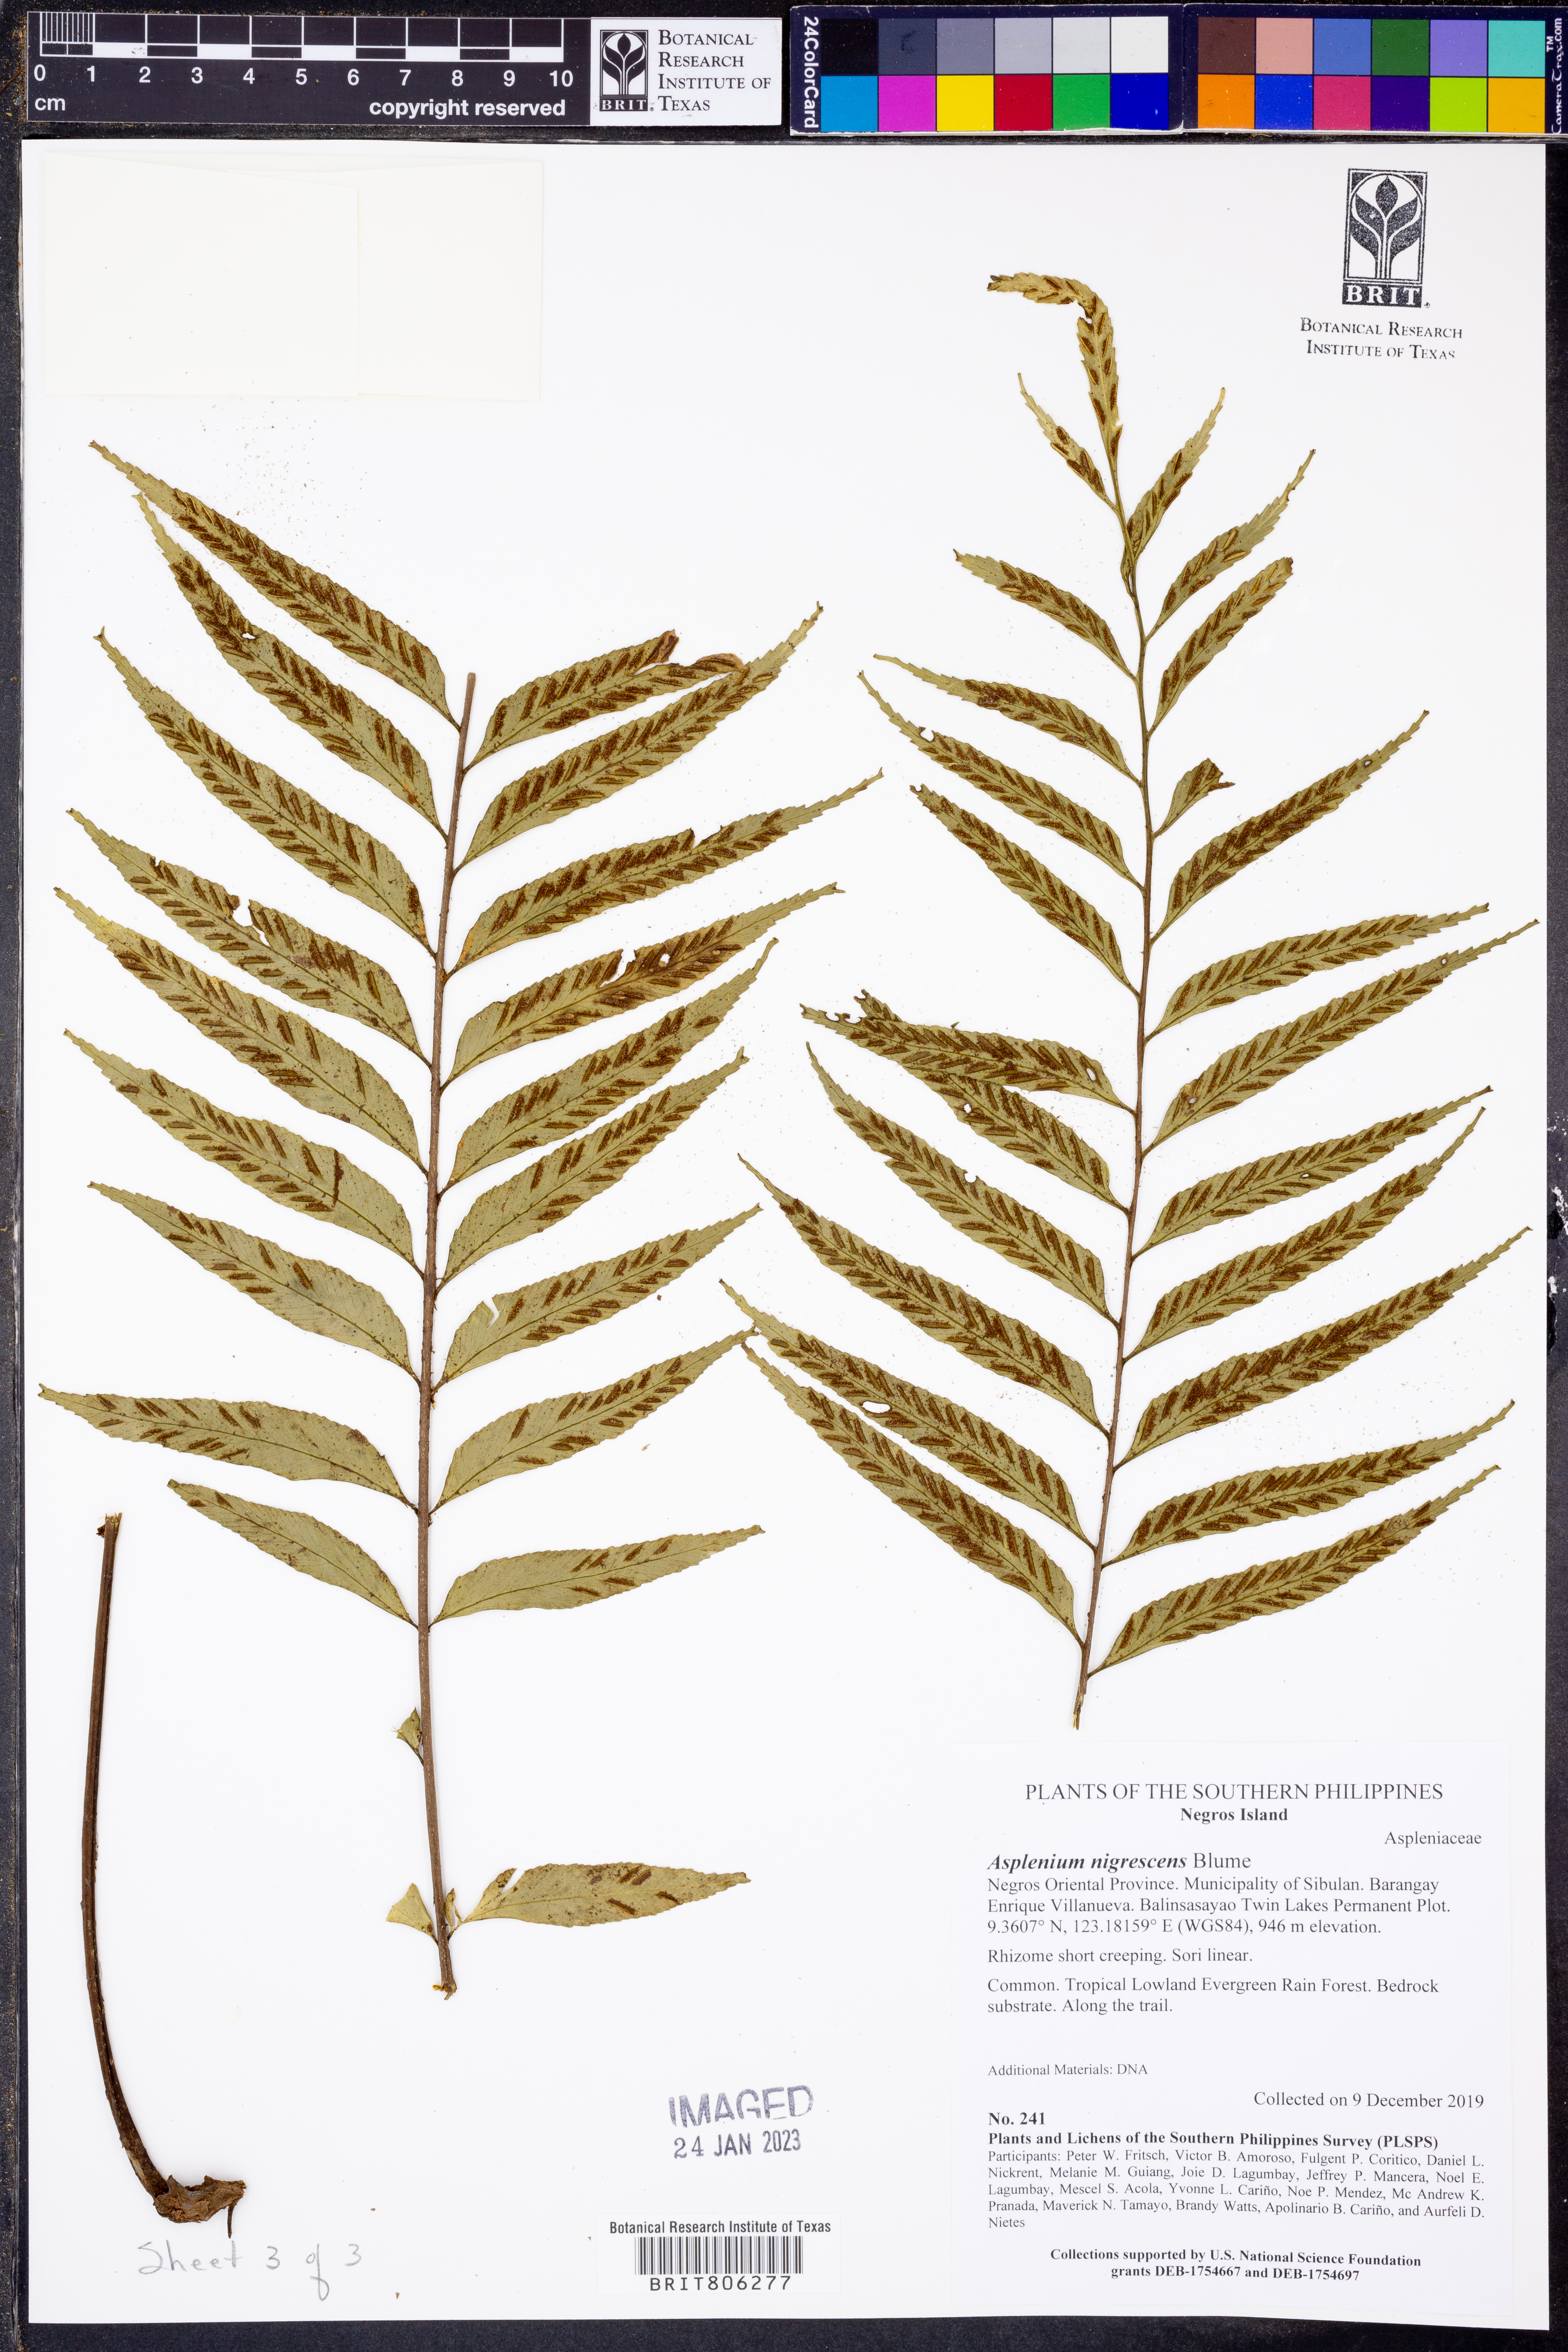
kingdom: Plantae
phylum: Tracheophyta
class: Polypodiopsida
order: Polypodiales
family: Aspleniaceae
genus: Asplenium
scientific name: Asplenium nigrescens
